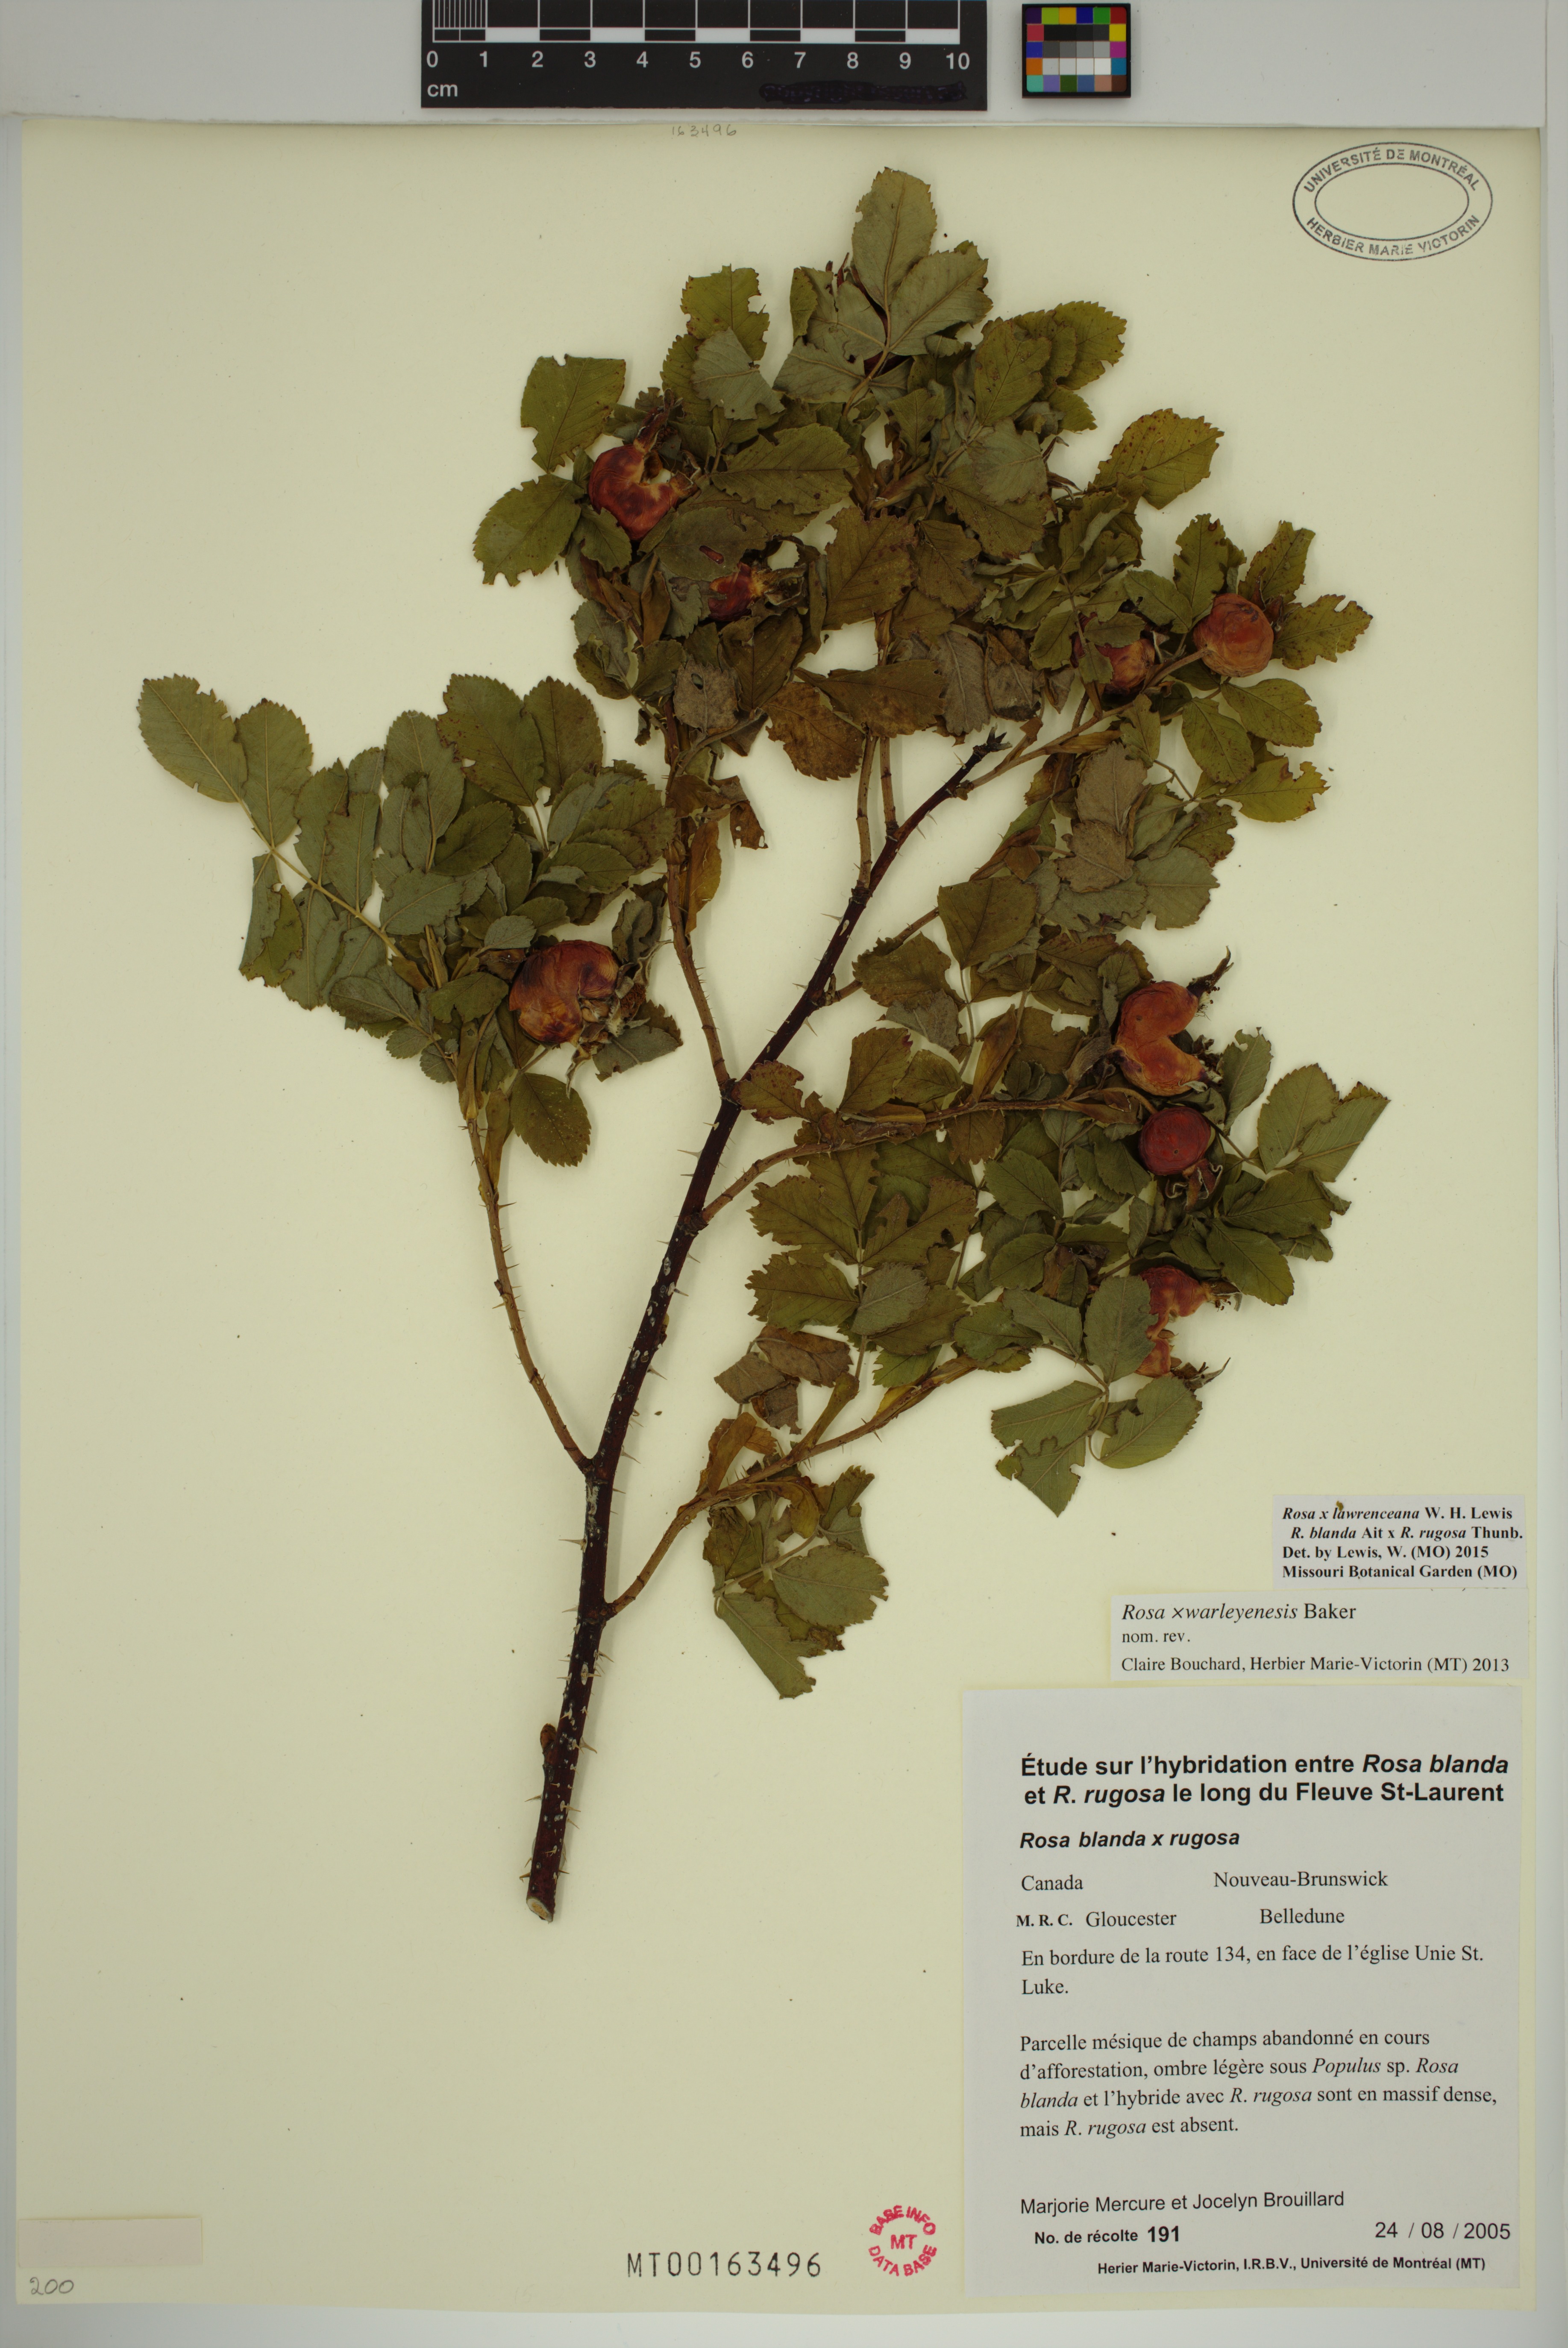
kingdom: Plantae
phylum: Tracheophyta
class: Magnoliopsida
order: Rosales
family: Rosaceae
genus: Rosa
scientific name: Rosa chinensis
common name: China rose
